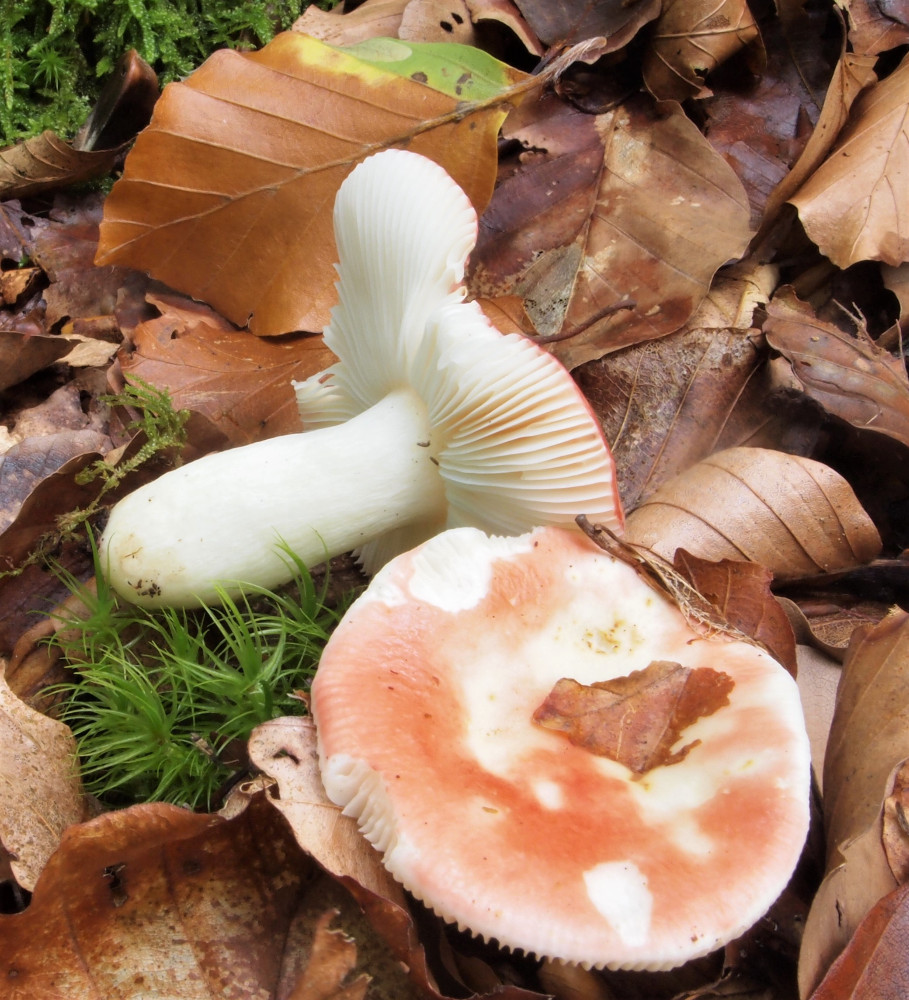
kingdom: Fungi
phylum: Basidiomycota
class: Agaricomycetes
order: Russulales
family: Russulaceae
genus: Russula
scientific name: Russula silvestris
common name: mellemstor gift-skørhat
